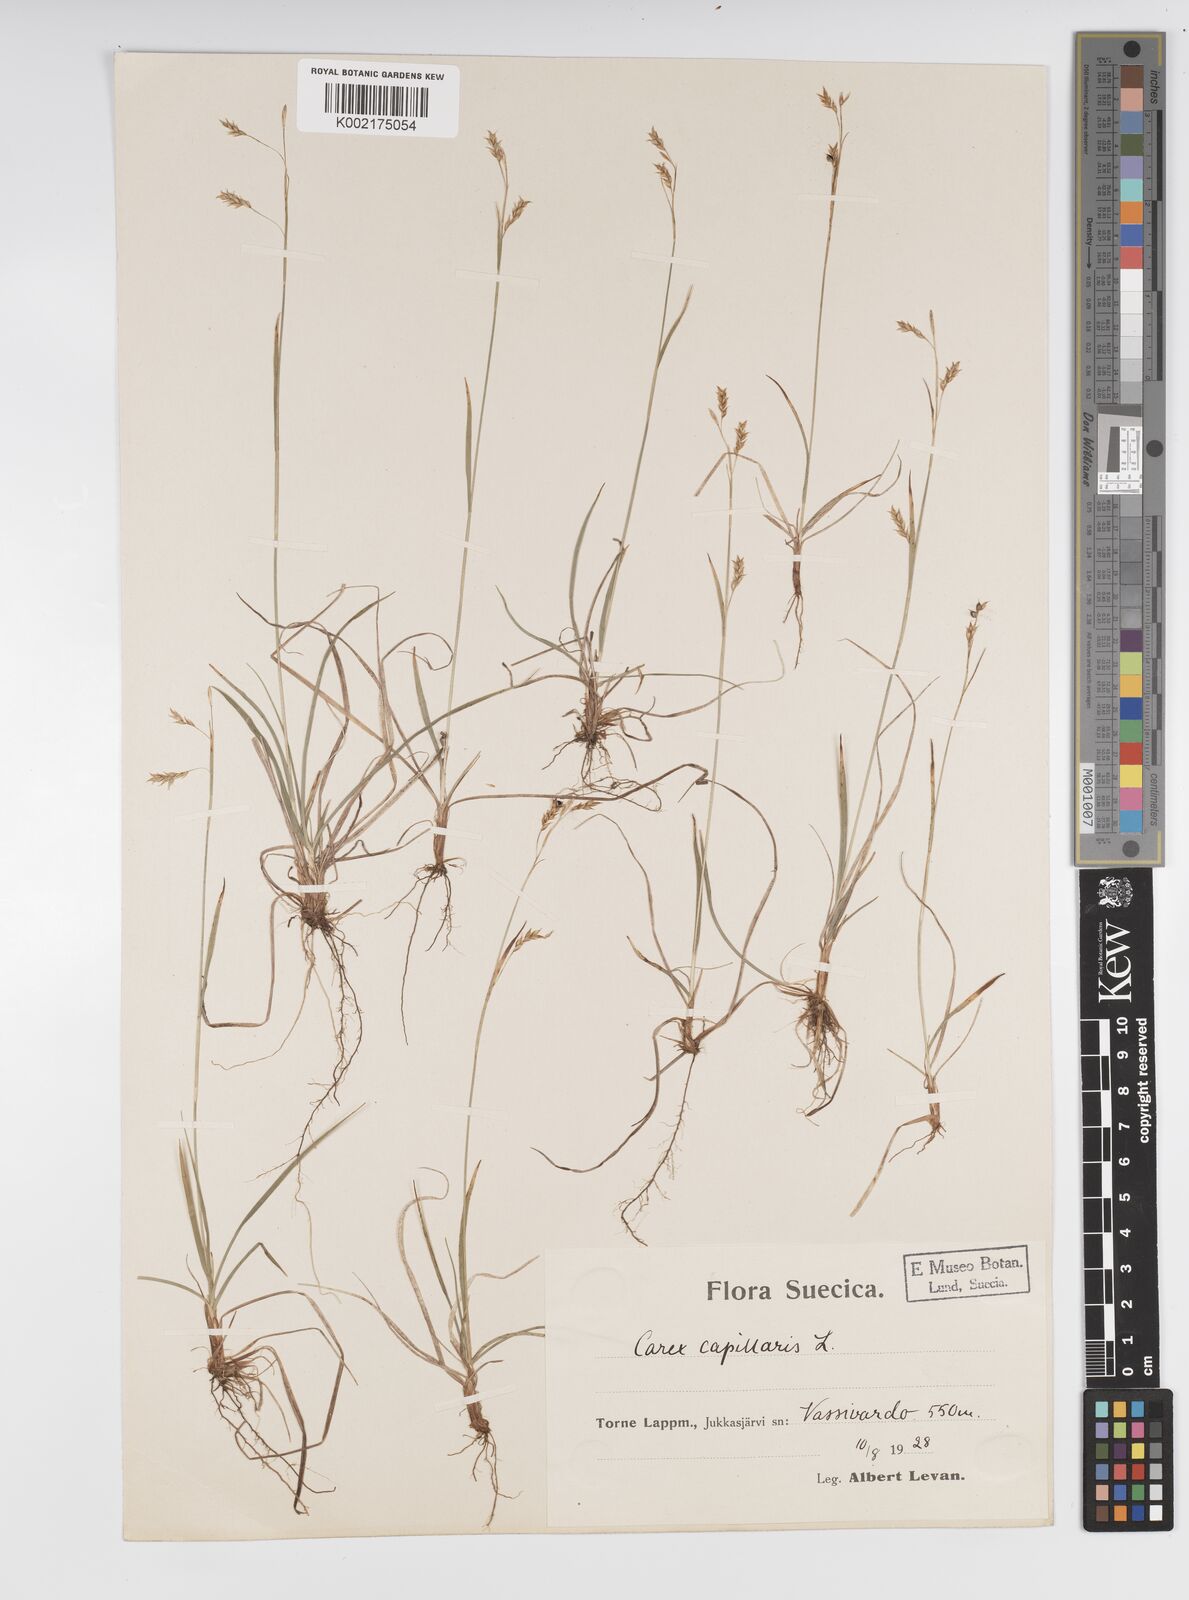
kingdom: Plantae
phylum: Tracheophyta
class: Liliopsida
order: Poales
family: Cyperaceae
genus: Carex
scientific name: Carex capillaris
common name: Hair sedge
